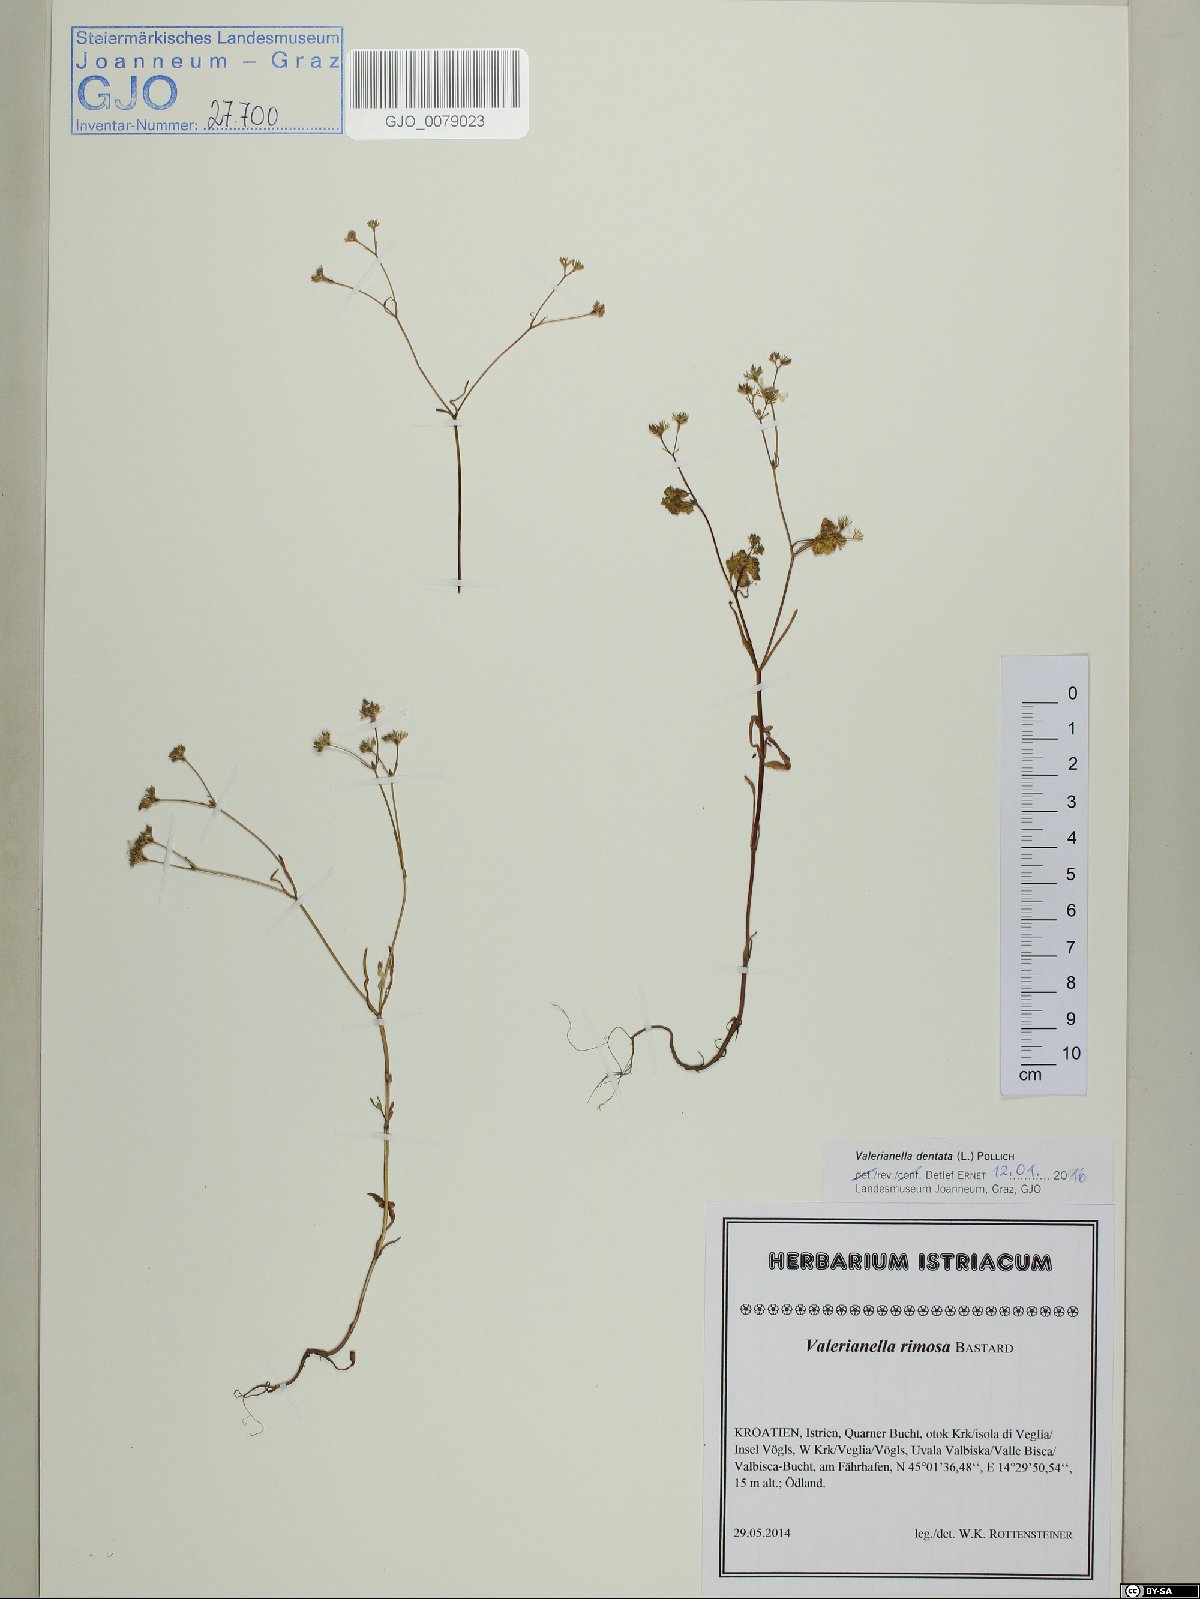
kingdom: Plantae
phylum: Tracheophyta
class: Magnoliopsida
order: Dipsacales
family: Caprifoliaceae
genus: Valerianella
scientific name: Valerianella dentata
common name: Narrow-fruited cornsalad
